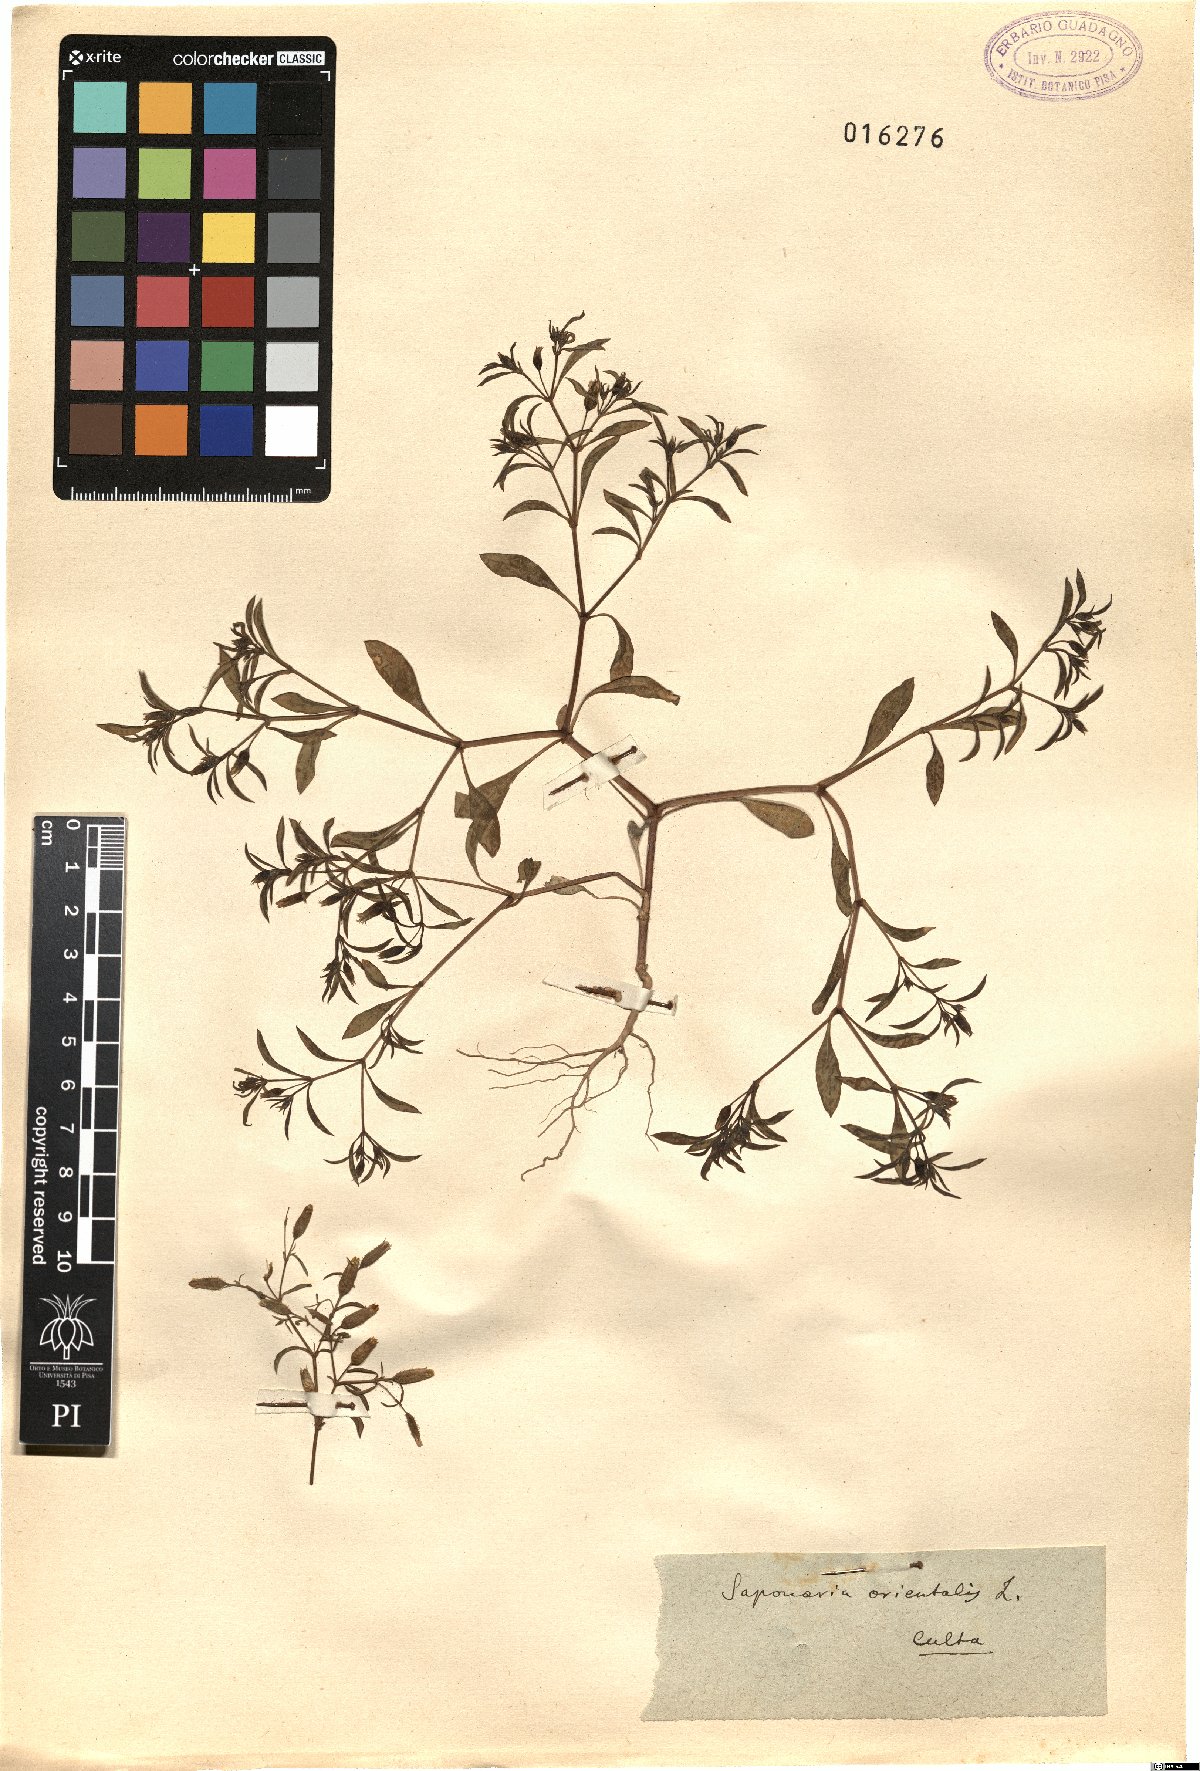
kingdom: Plantae
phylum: Tracheophyta
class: Magnoliopsida
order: Caryophyllales
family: Caryophyllaceae
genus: Saponaria
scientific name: Saponaria orientalis
